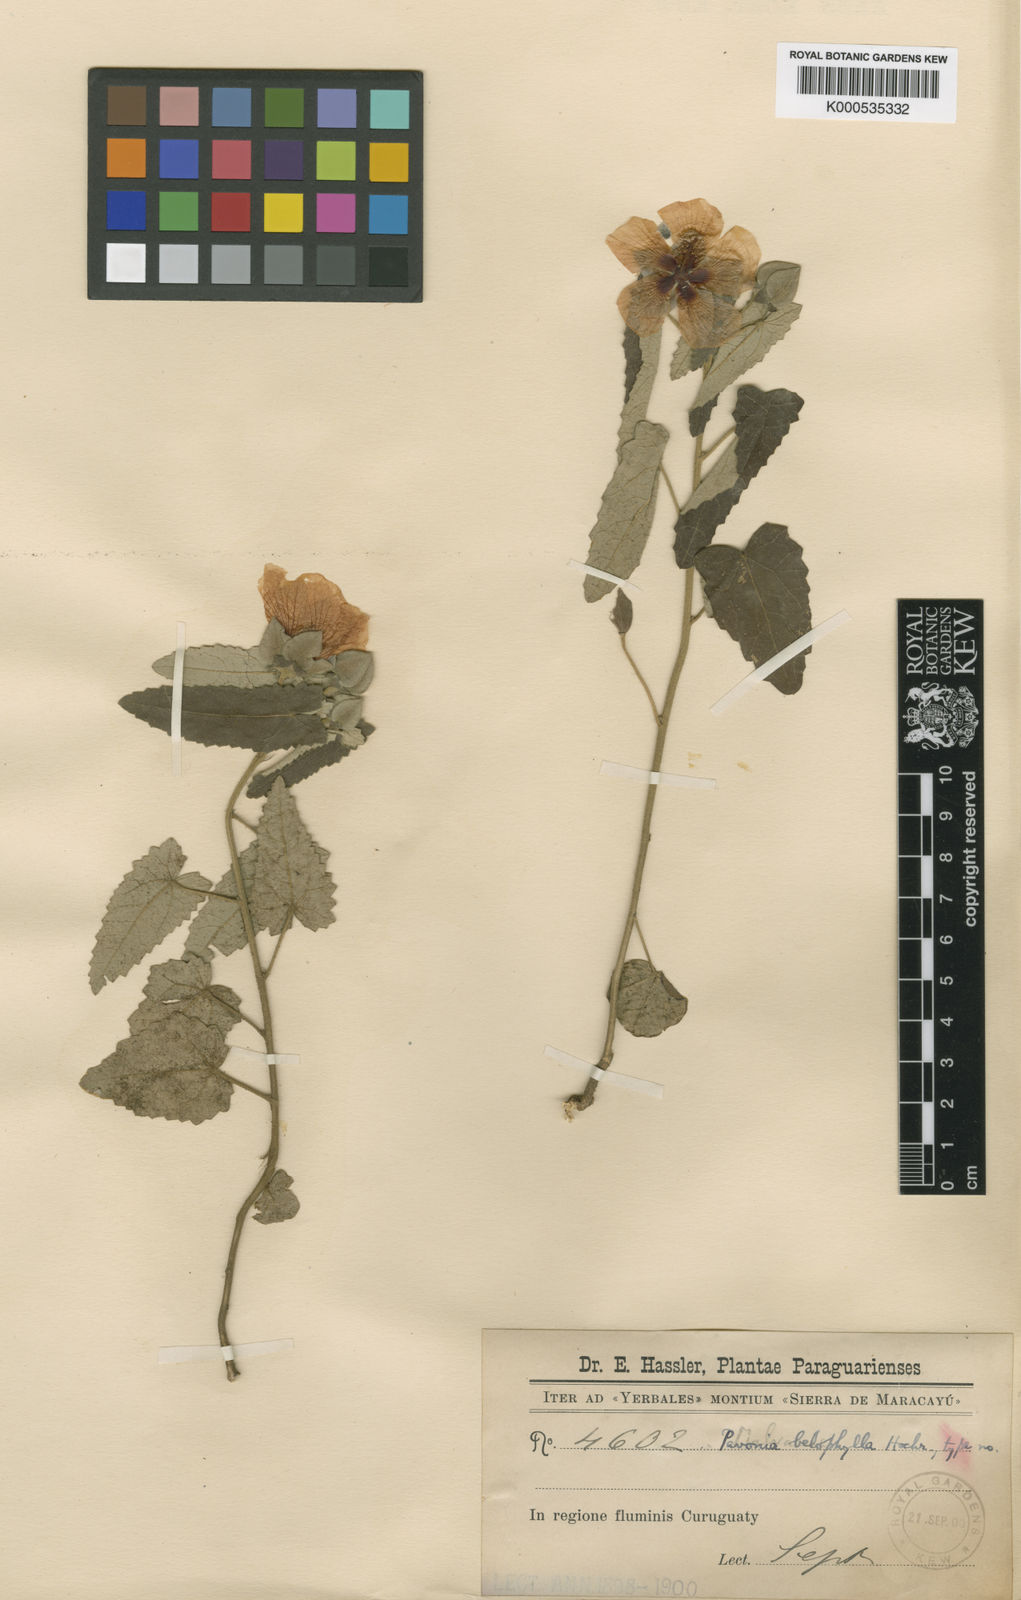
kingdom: Plantae
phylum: Tracheophyta
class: Magnoliopsida
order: Malvales
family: Malvaceae
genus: Pavonia
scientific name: Pavonia belophylla
